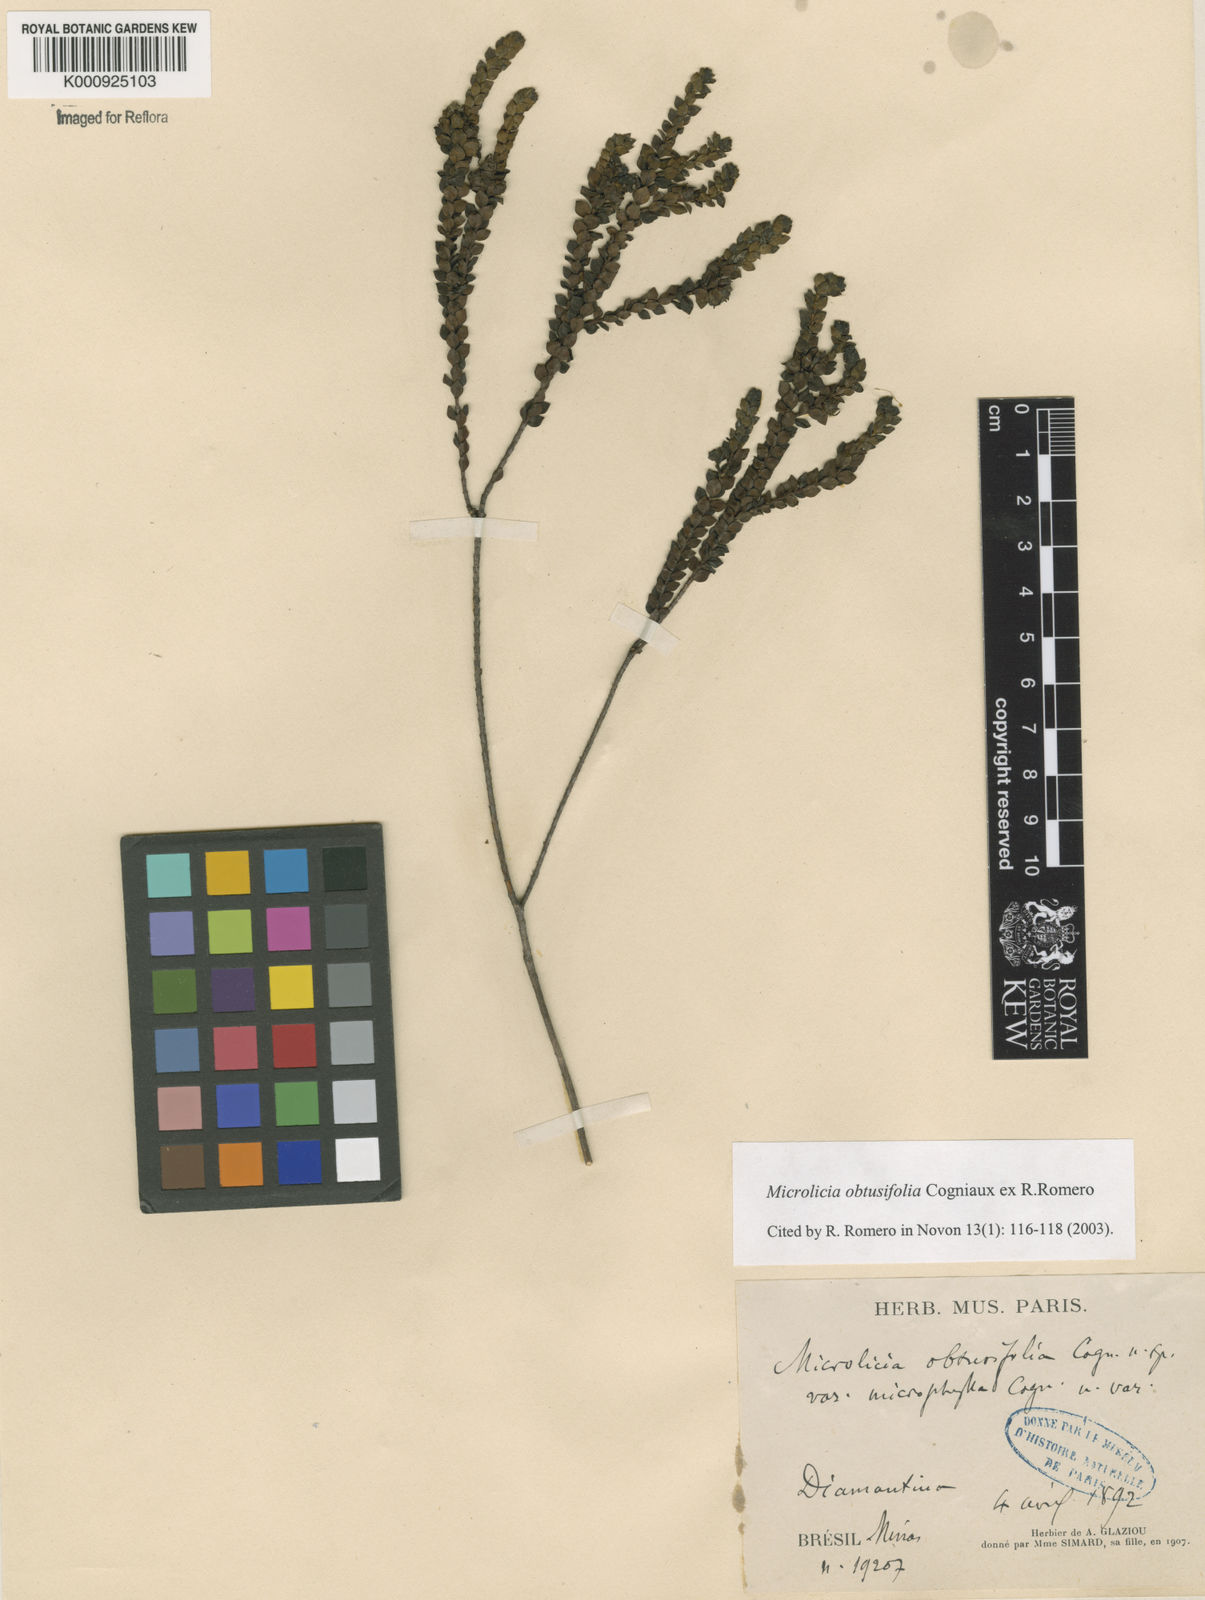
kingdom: Plantae
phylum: Tracheophyta
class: Magnoliopsida
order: Myrtales
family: Melastomataceae
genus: Microlicia
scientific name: Microlicia obtusifolia
